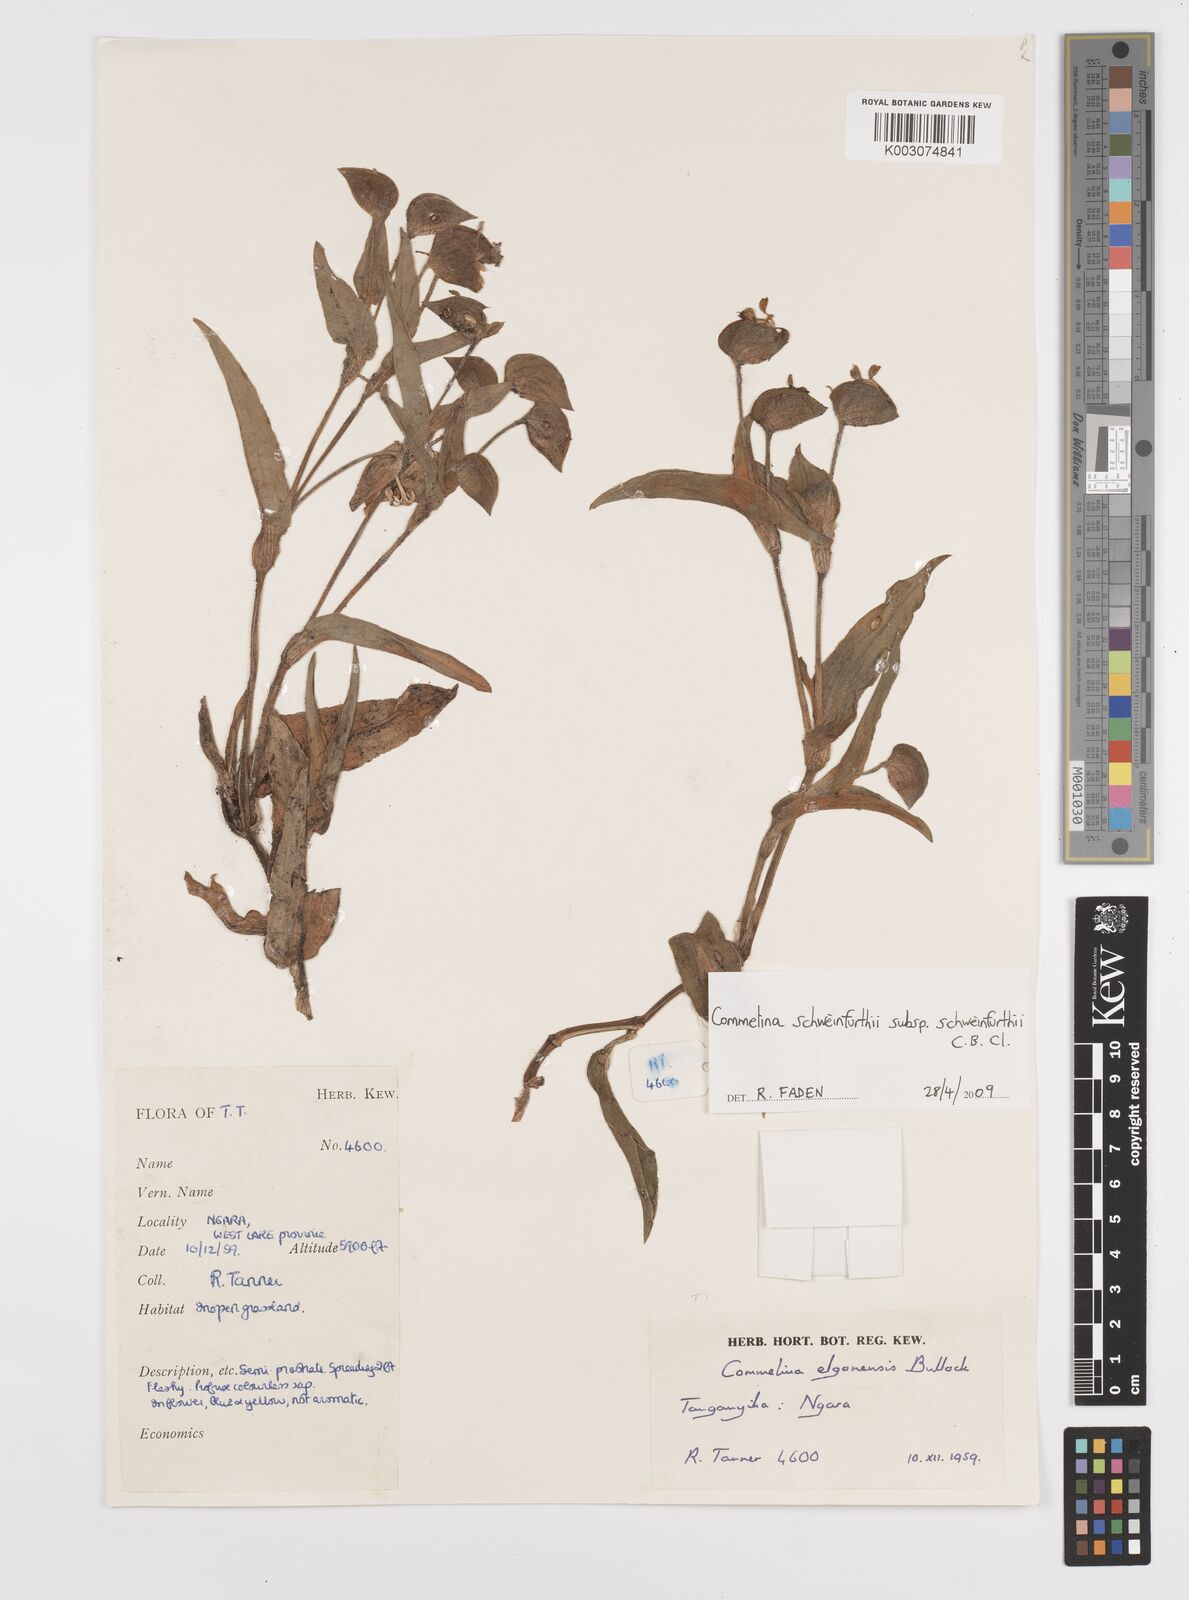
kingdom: Plantae
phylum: Tracheophyta
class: Liliopsida
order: Commelinales
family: Commelinaceae
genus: Commelina
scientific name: Commelina schweinfurthii
